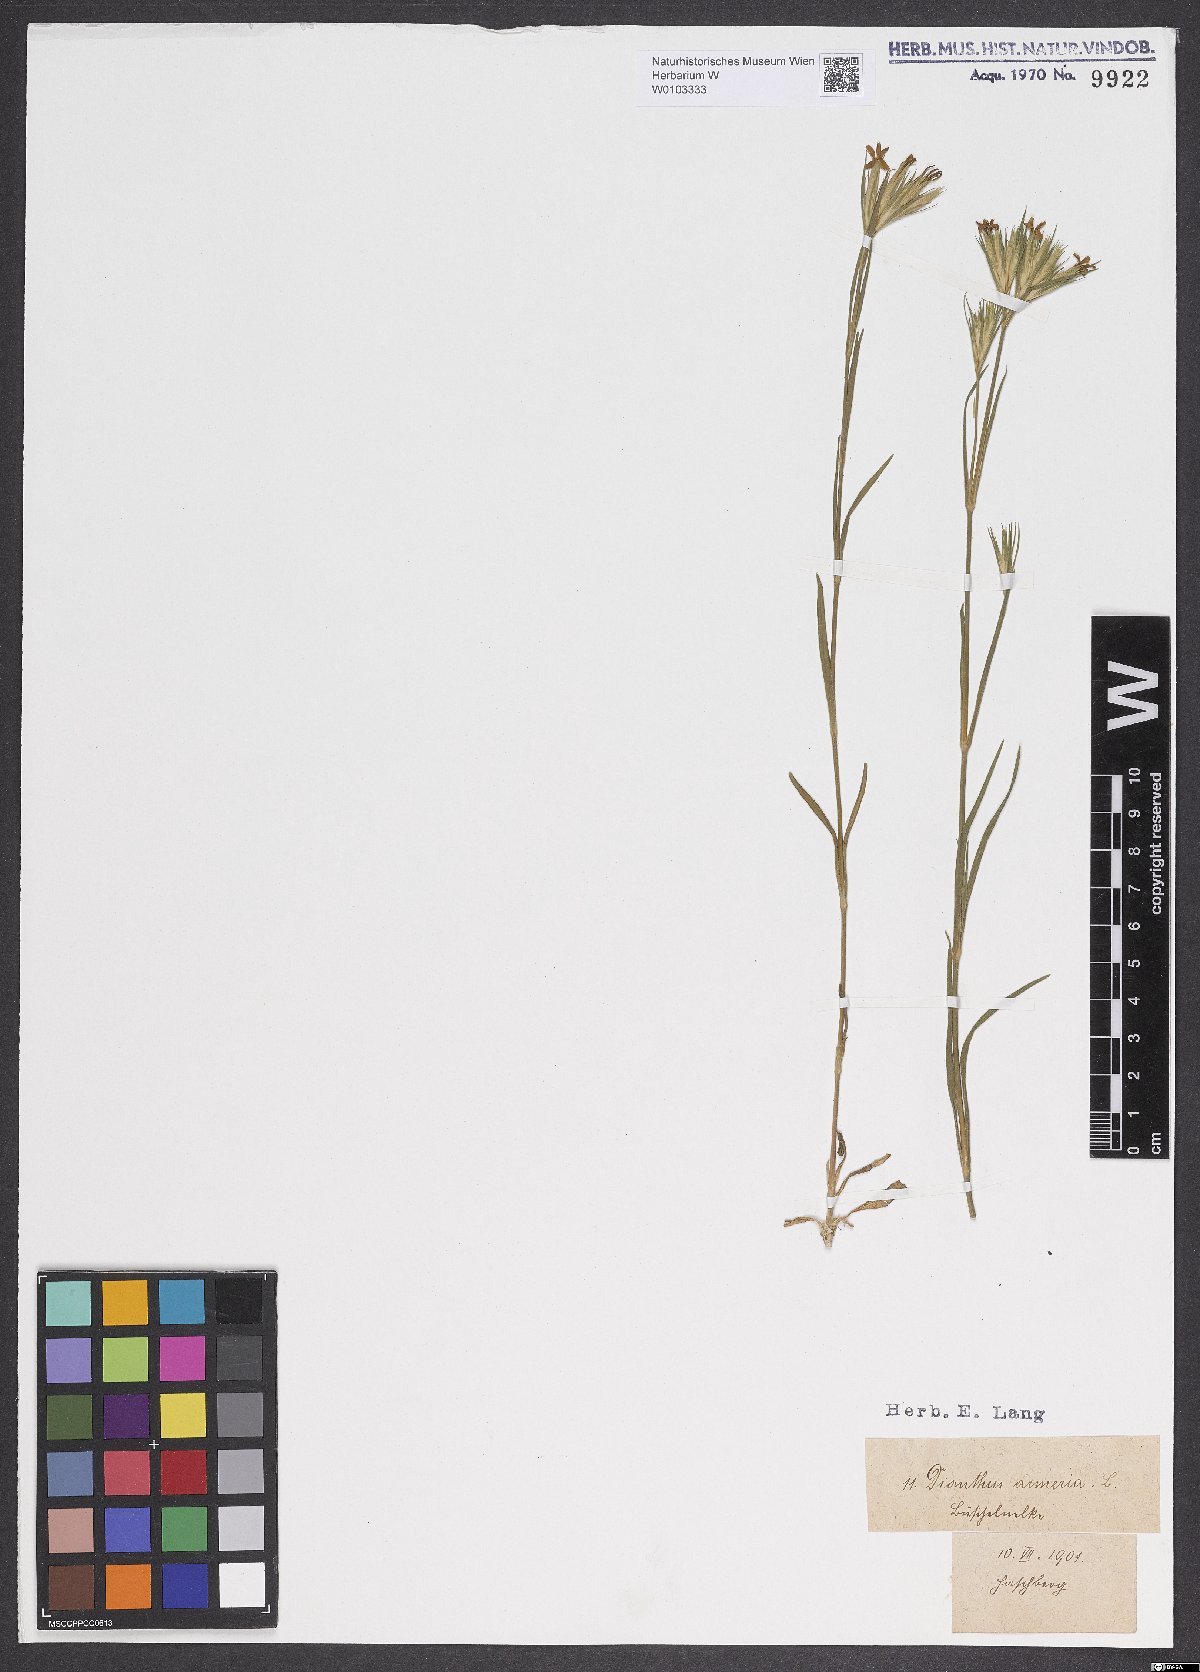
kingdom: Plantae
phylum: Tracheophyta
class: Magnoliopsida
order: Caryophyllales
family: Caryophyllaceae
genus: Dianthus
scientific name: Dianthus armeria
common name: Deptford pink
